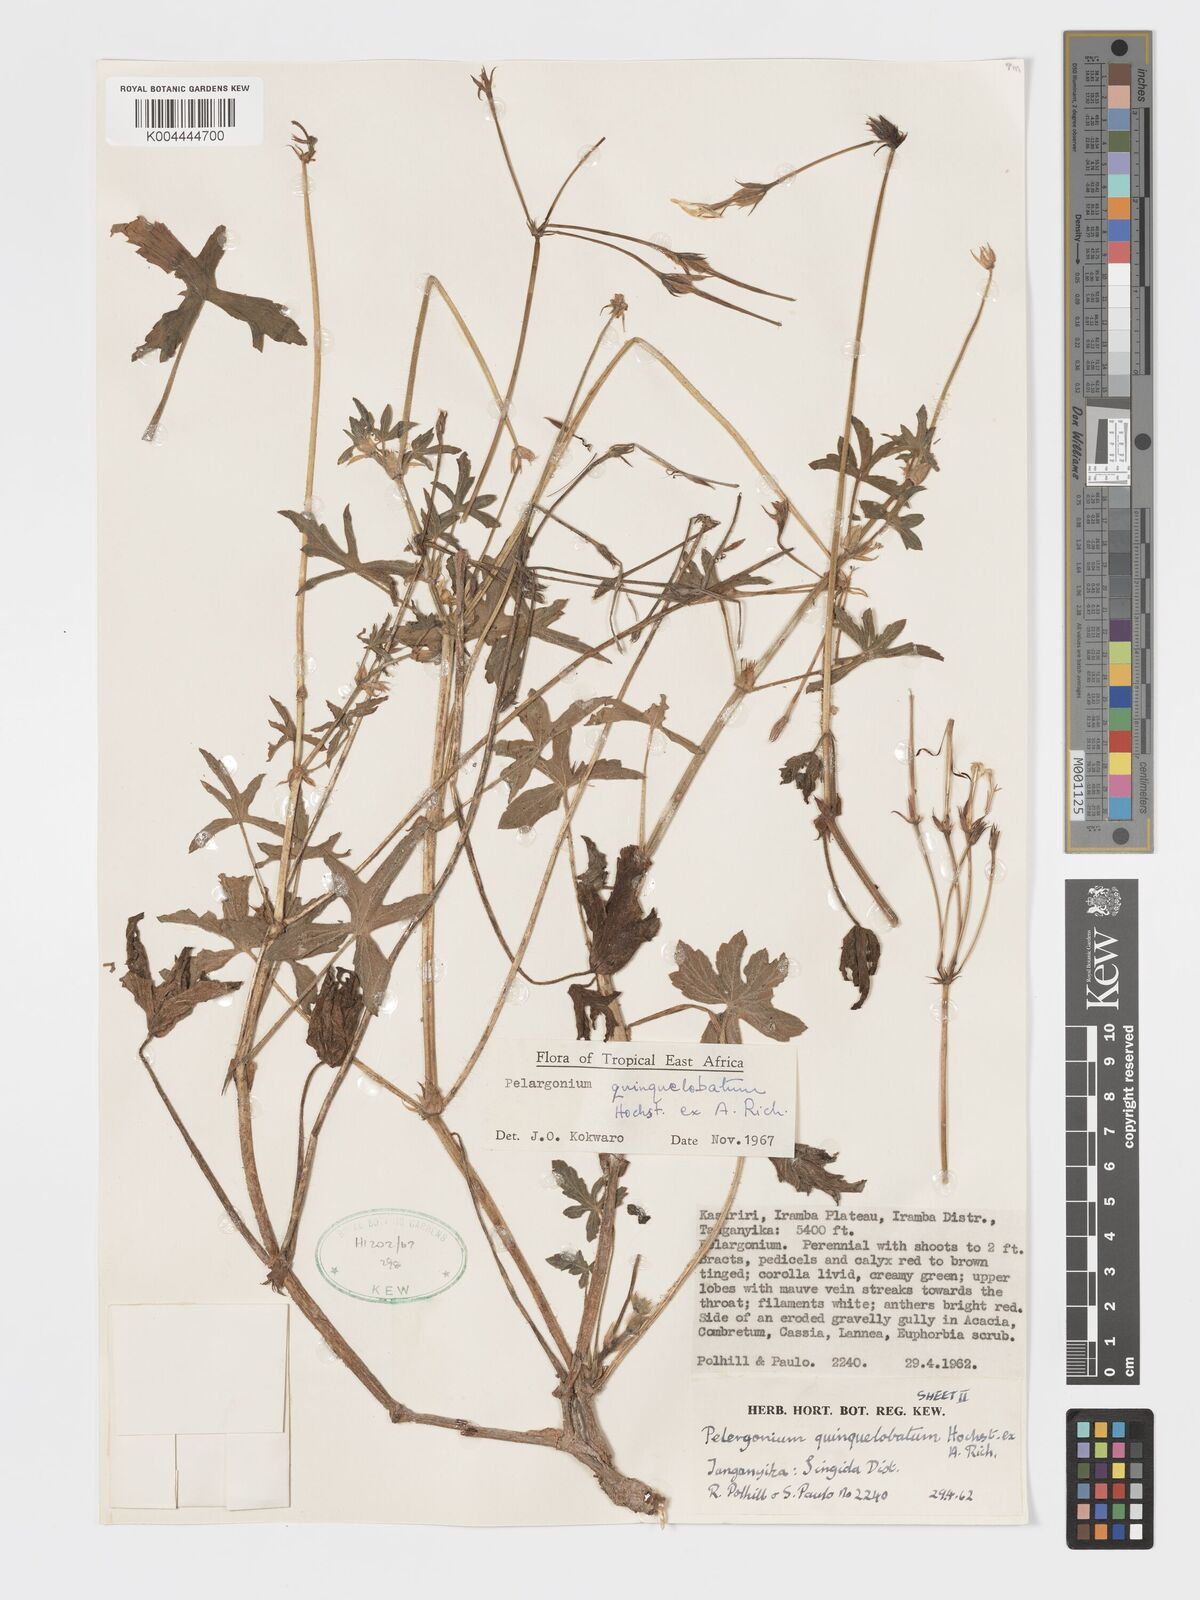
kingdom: Plantae
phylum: Tracheophyta
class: Magnoliopsida
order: Geraniales
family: Geraniaceae
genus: Pelargonium
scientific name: Pelargonium quinquelobatum
